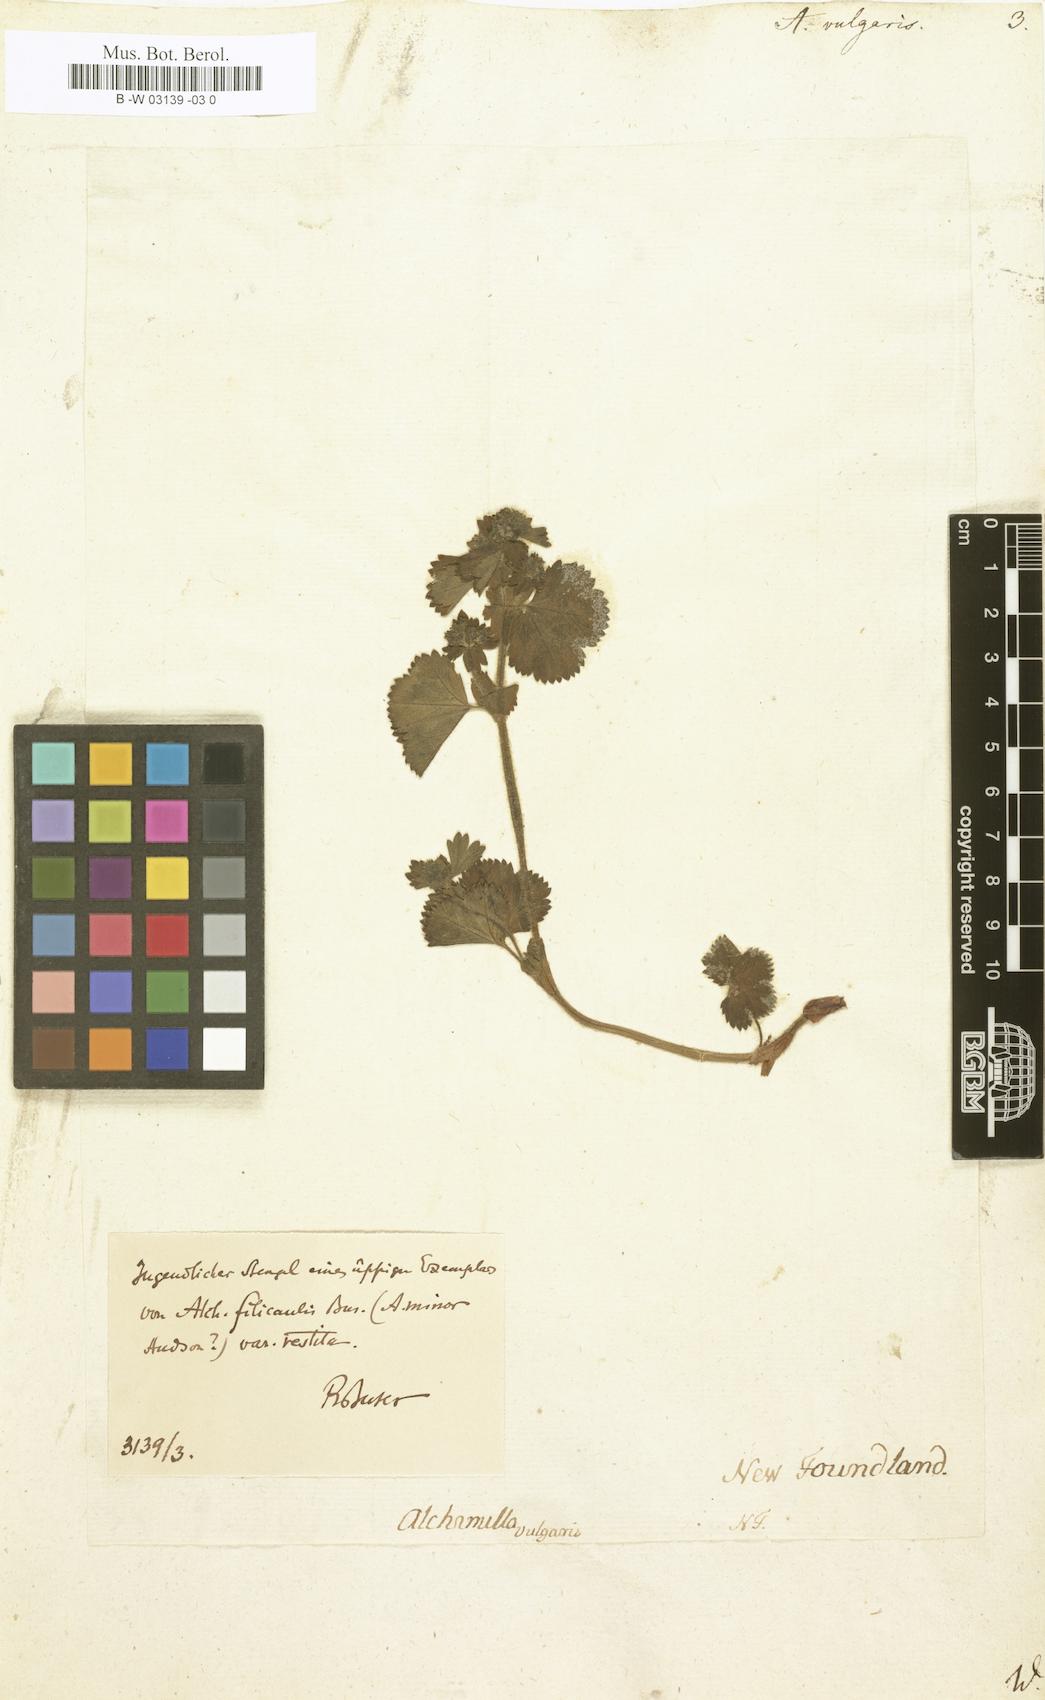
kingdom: Plantae
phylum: Tracheophyta
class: Magnoliopsida
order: Rosales
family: Rosaceae
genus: Alchemilla
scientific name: Alchemilla vulgaris
